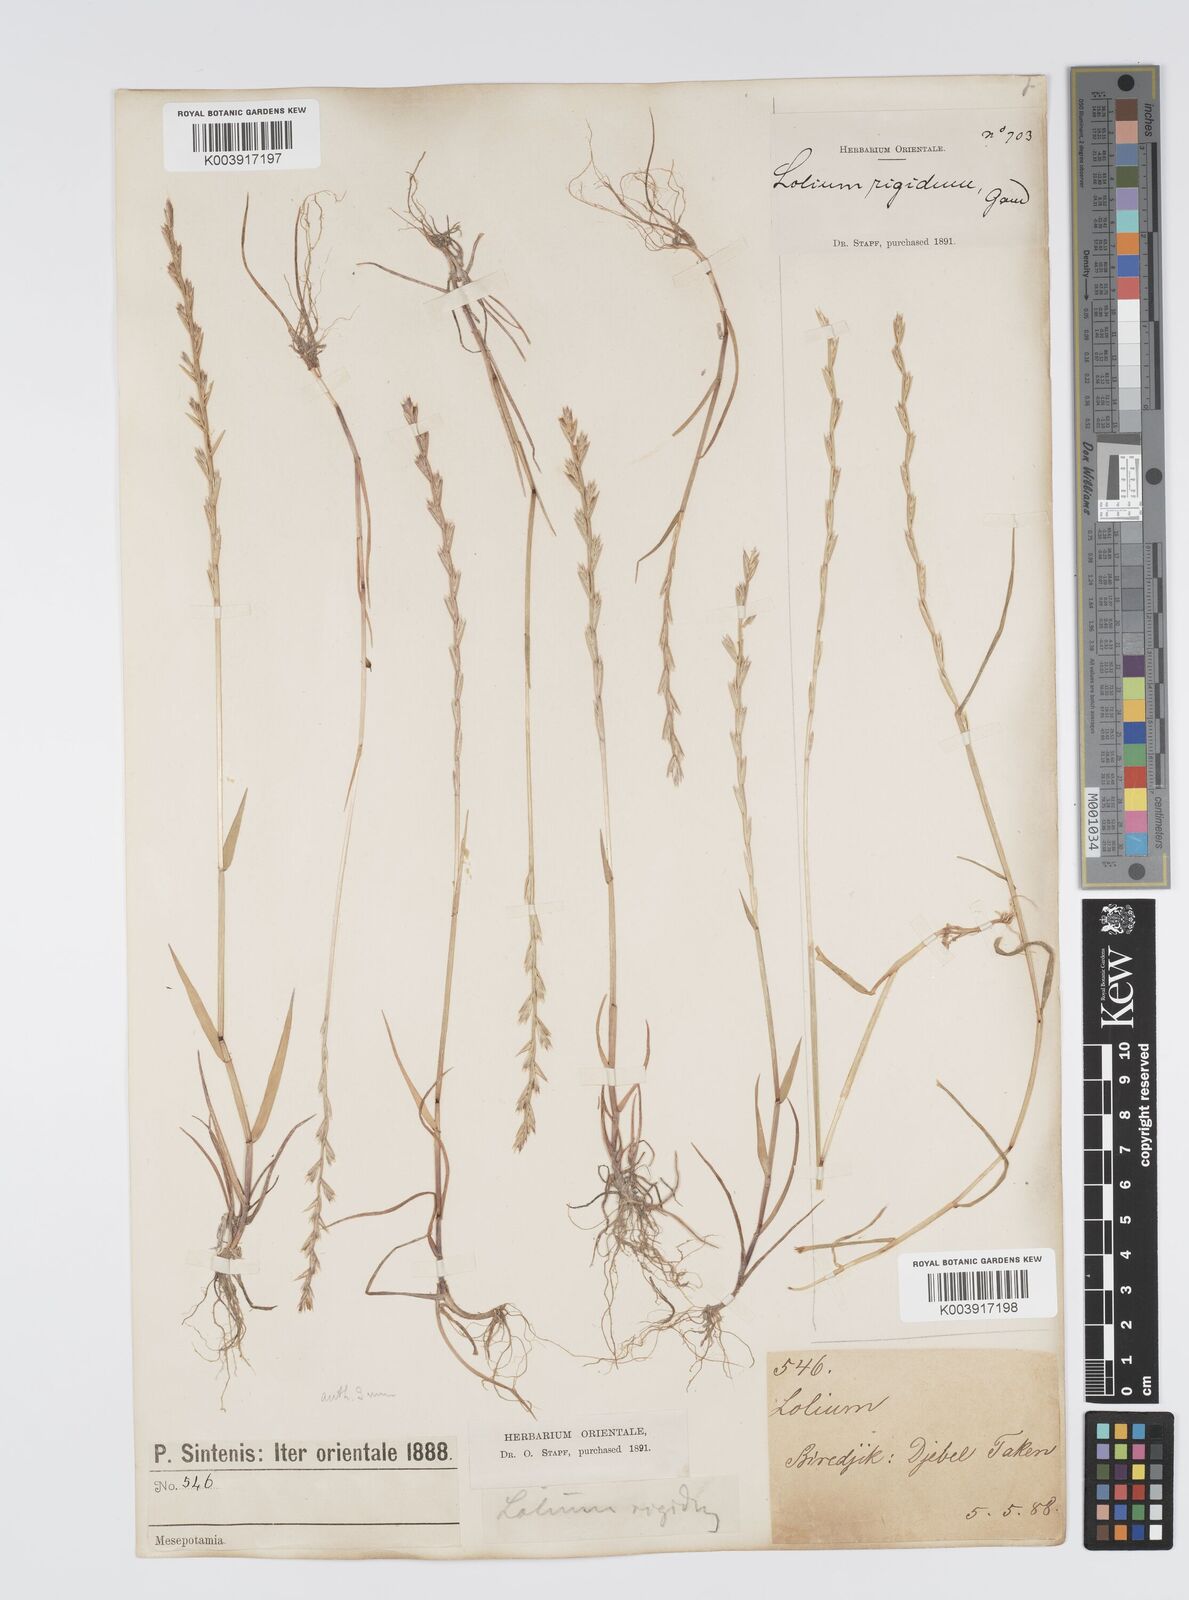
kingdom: Plantae
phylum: Tracheophyta
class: Liliopsida
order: Poales
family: Poaceae
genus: Lolium
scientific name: Lolium rigidum
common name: Wimmera ryegrass
